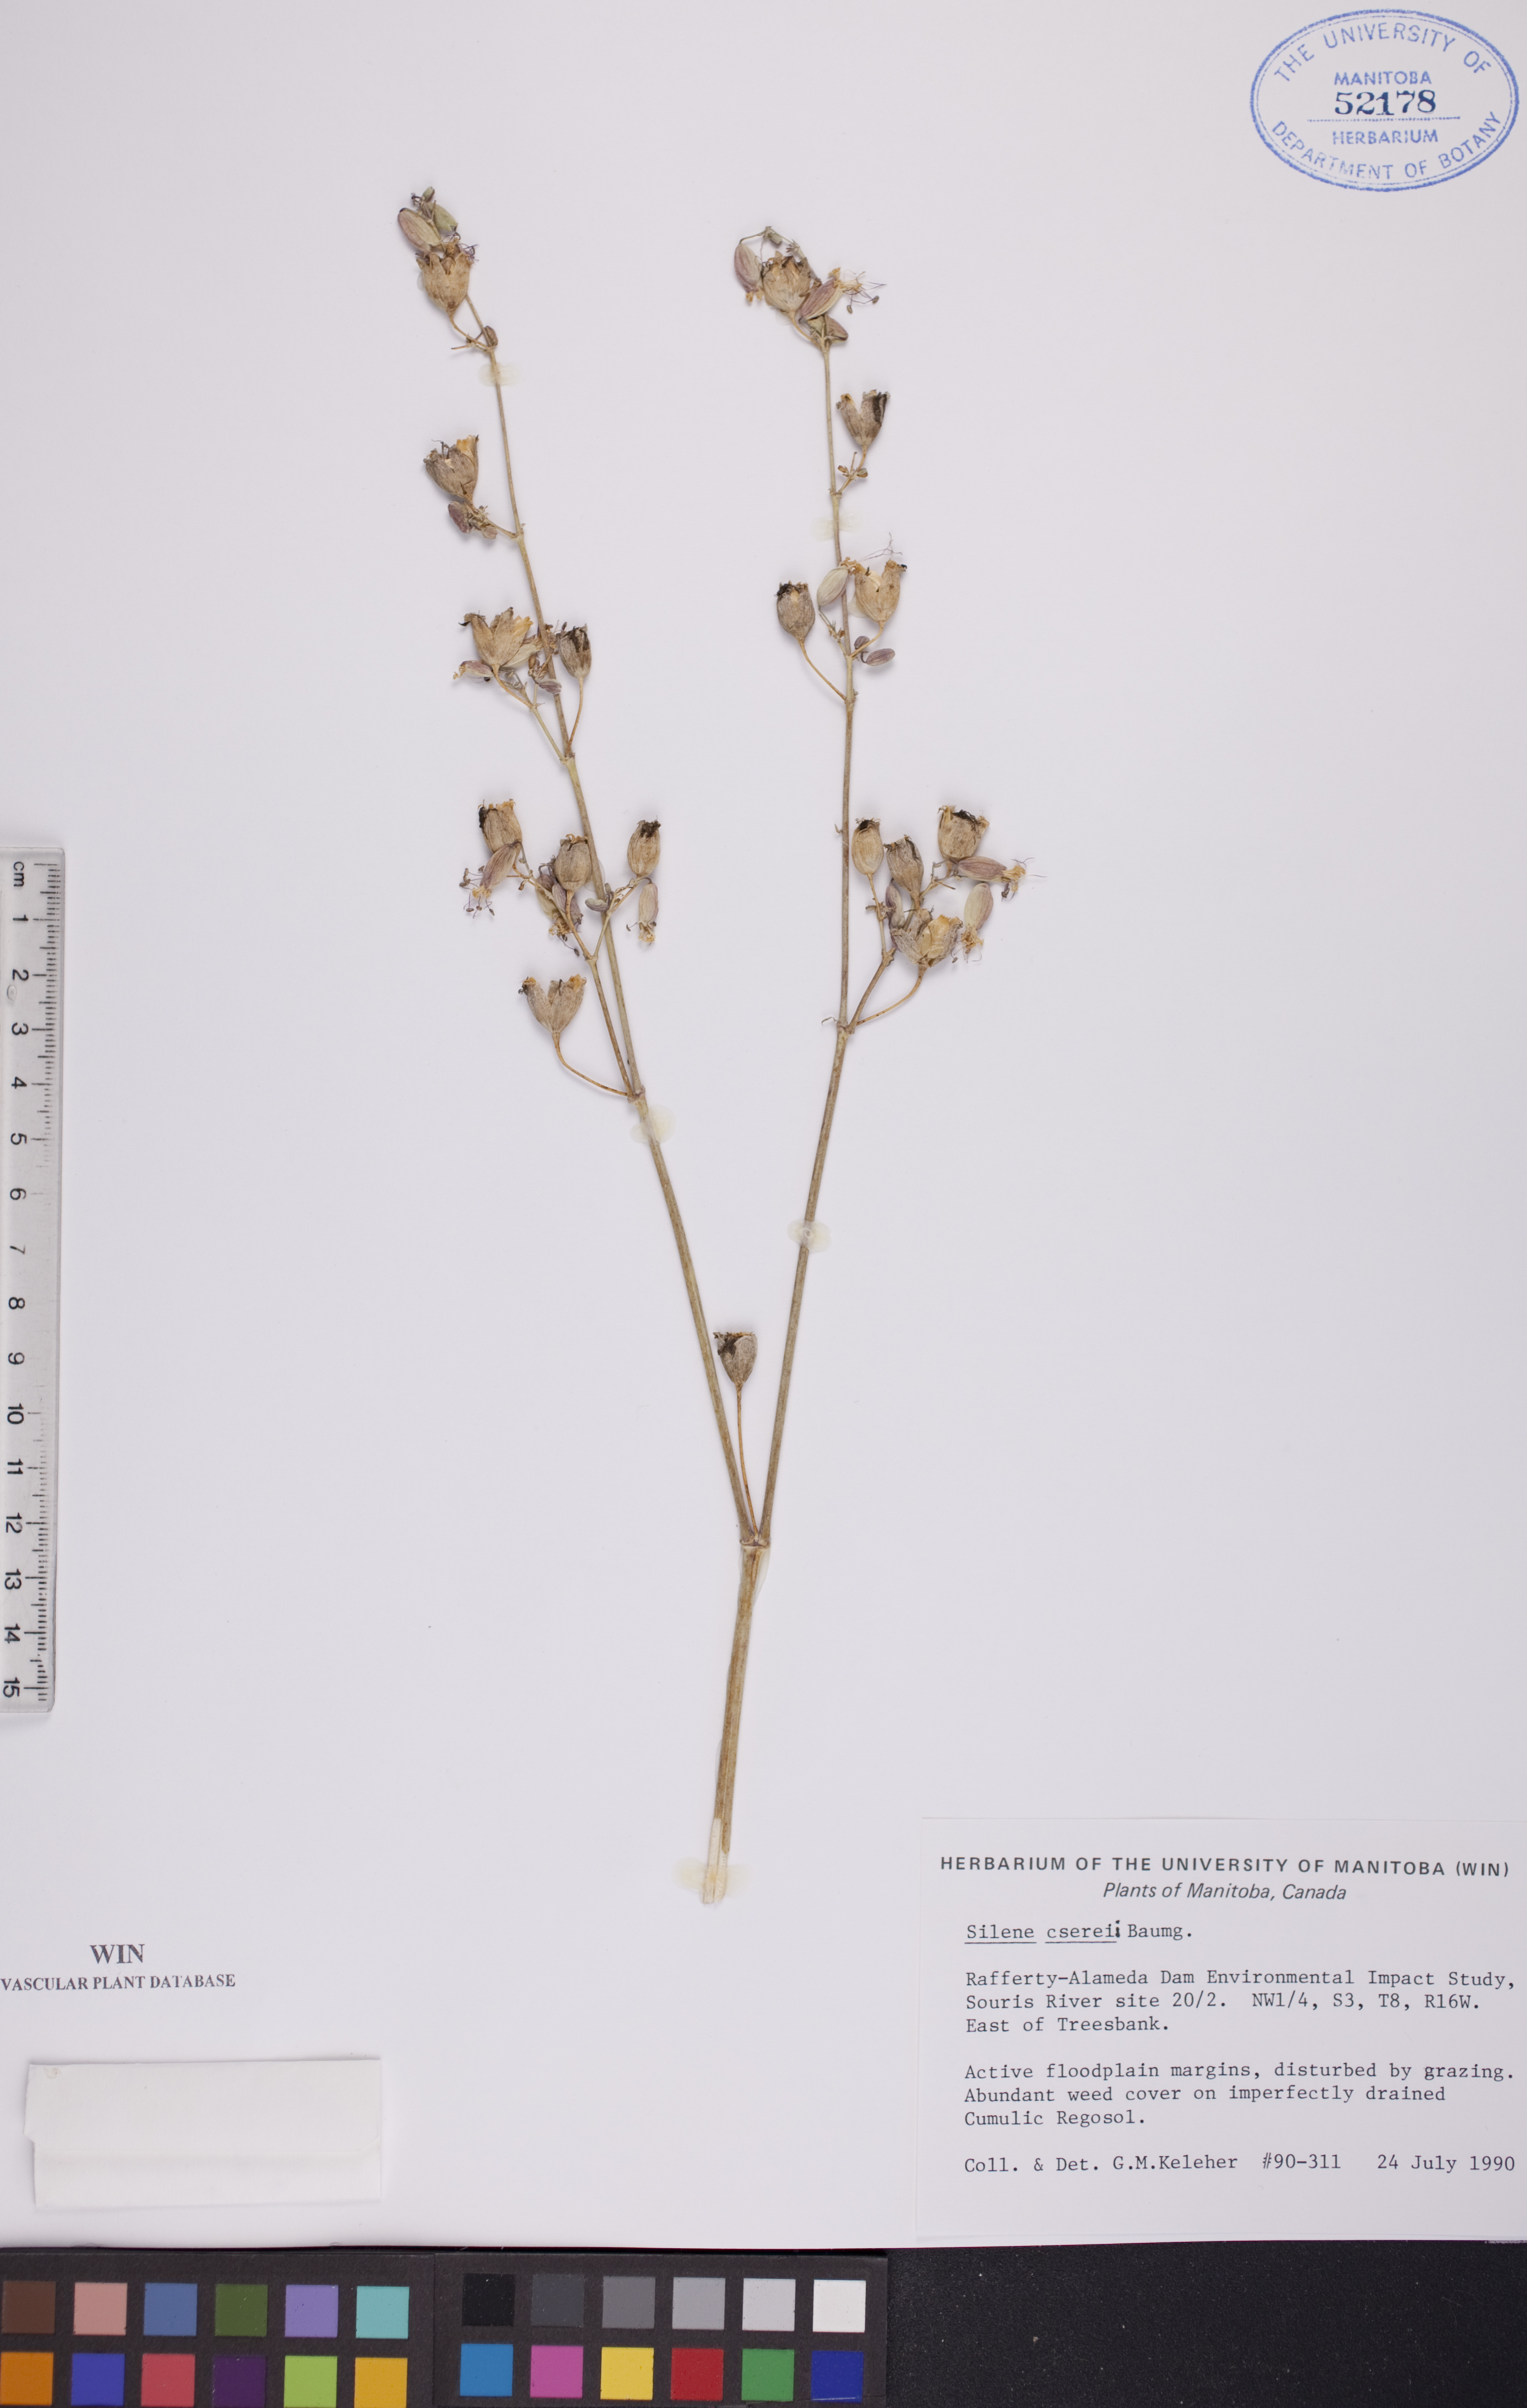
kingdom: Plantae
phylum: Tracheophyta
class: Magnoliopsida
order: Caryophyllales
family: Caryophyllaceae
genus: Silene
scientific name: Silene csereii
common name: Balkan catchfly
